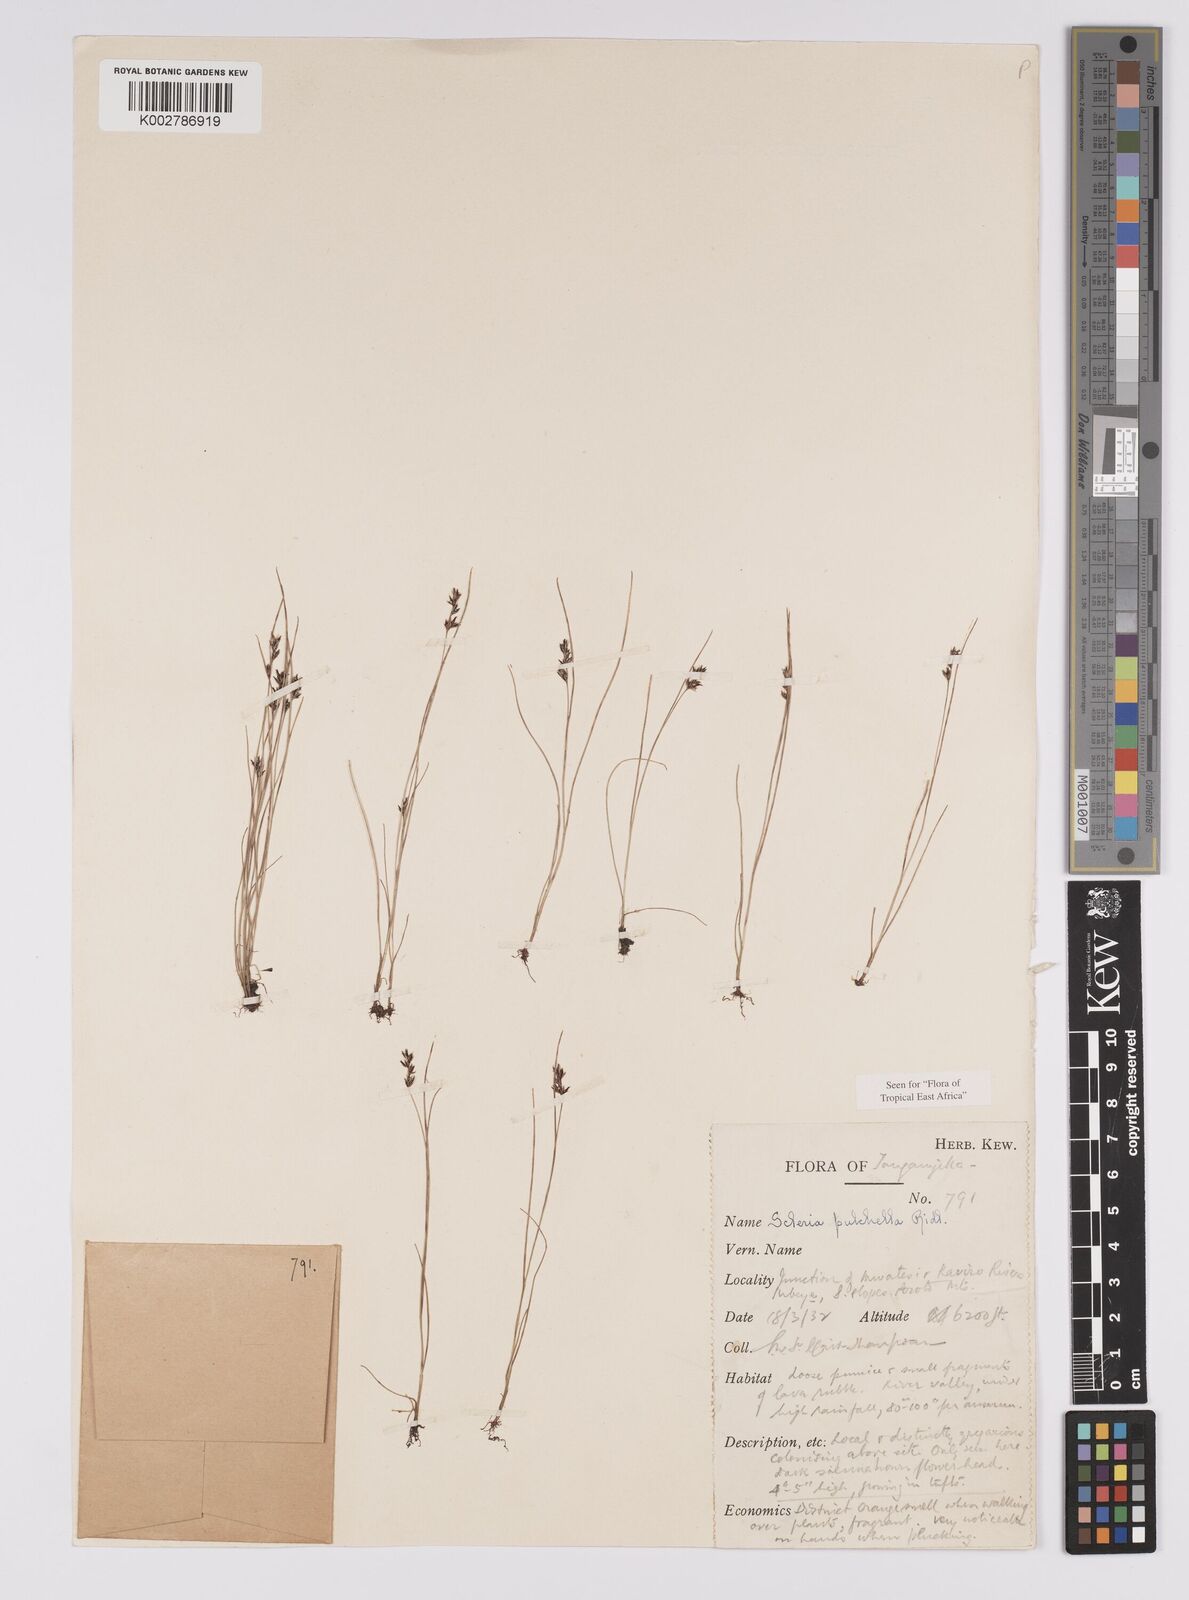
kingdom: Plantae
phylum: Tracheophyta
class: Liliopsida
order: Poales
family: Cyperaceae
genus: Scleria
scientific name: Scleria pulchella
